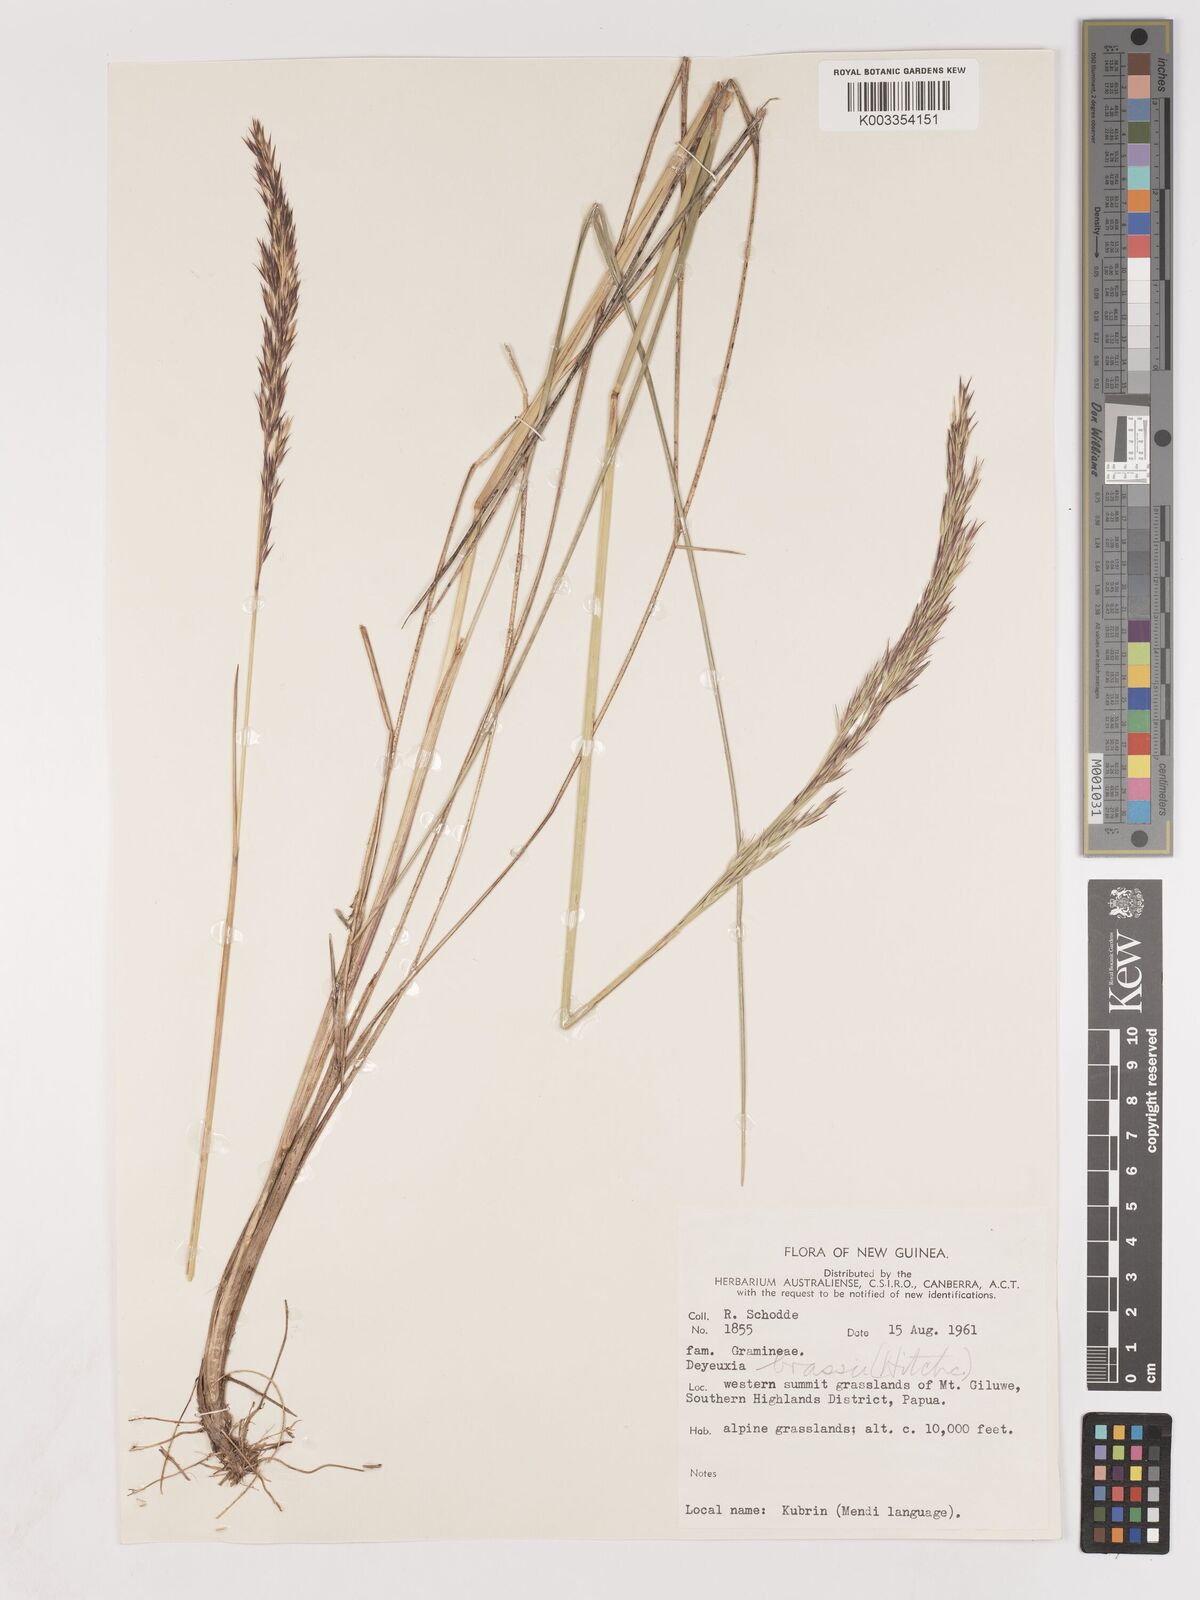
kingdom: Plantae
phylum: Tracheophyta
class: Liliopsida
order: Poales
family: Poaceae
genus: Calamagrostis
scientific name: Calamagrostis brassii
